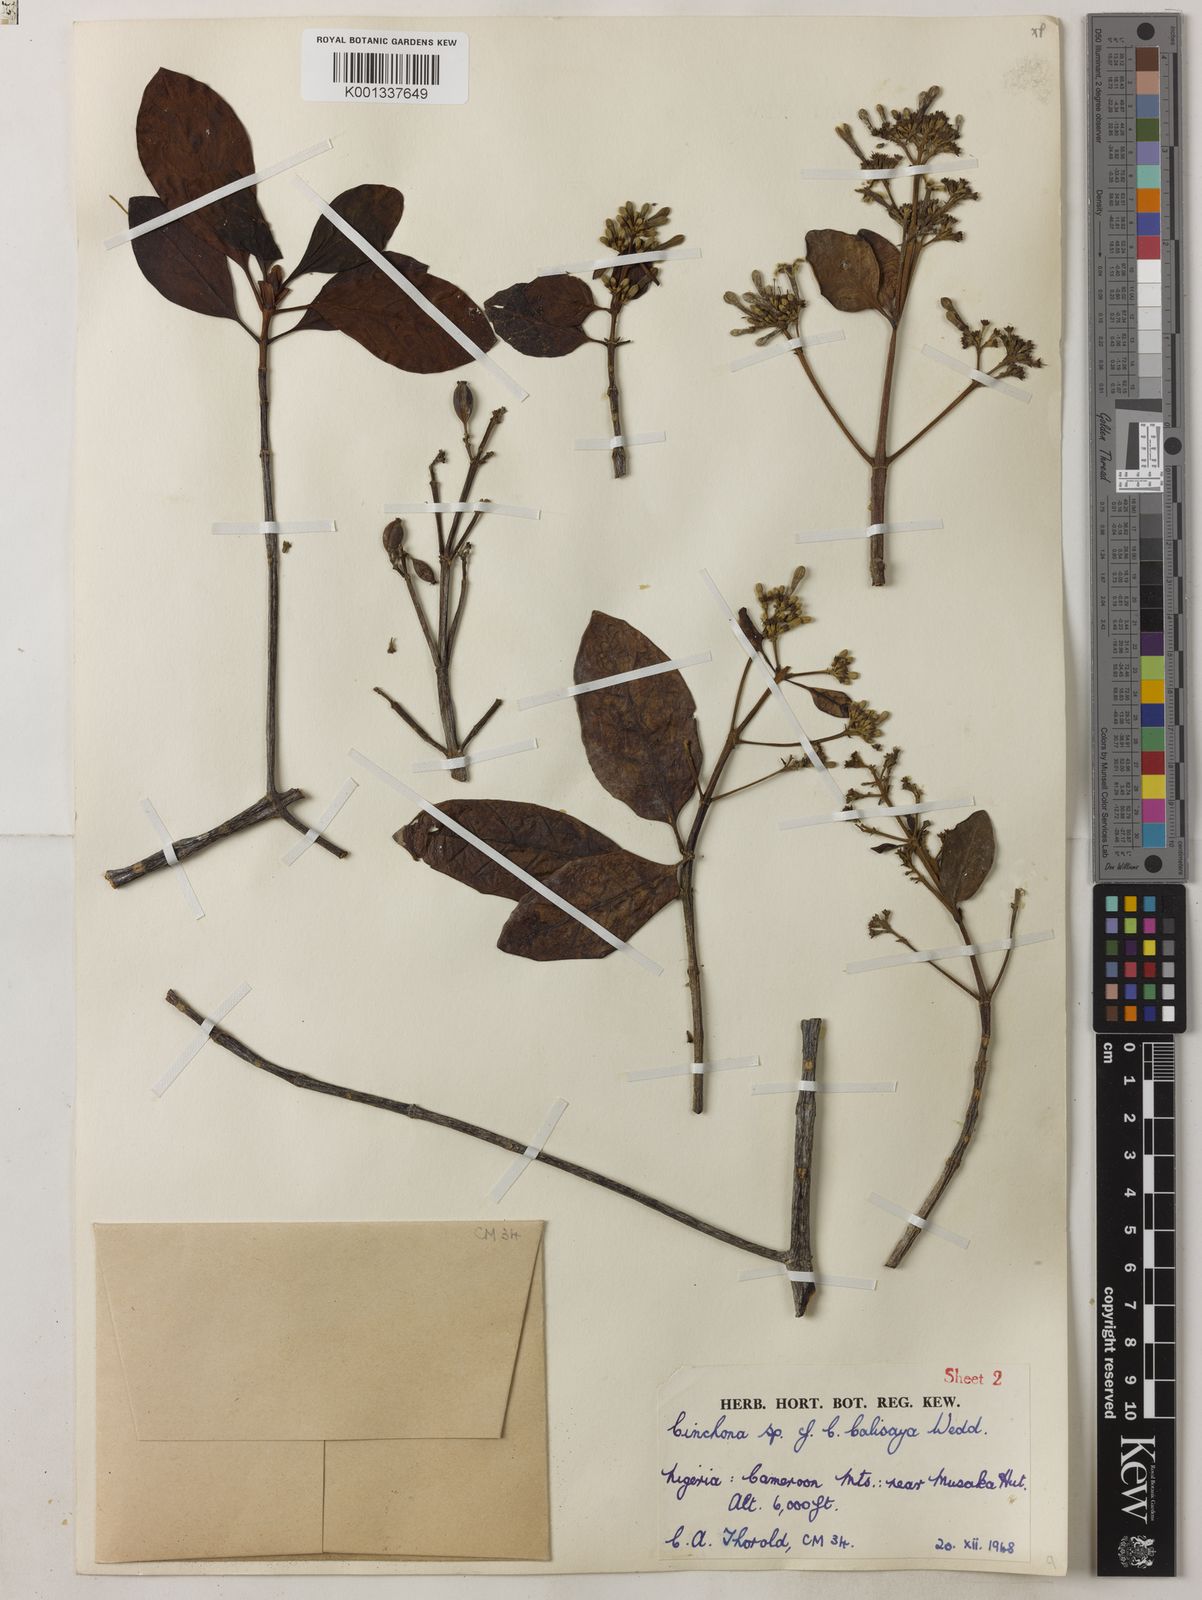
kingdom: Plantae
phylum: Tracheophyta
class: Magnoliopsida
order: Gentianales
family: Rubiaceae
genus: Cinchona
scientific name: Cinchona calisaya
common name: Ledgerbark
